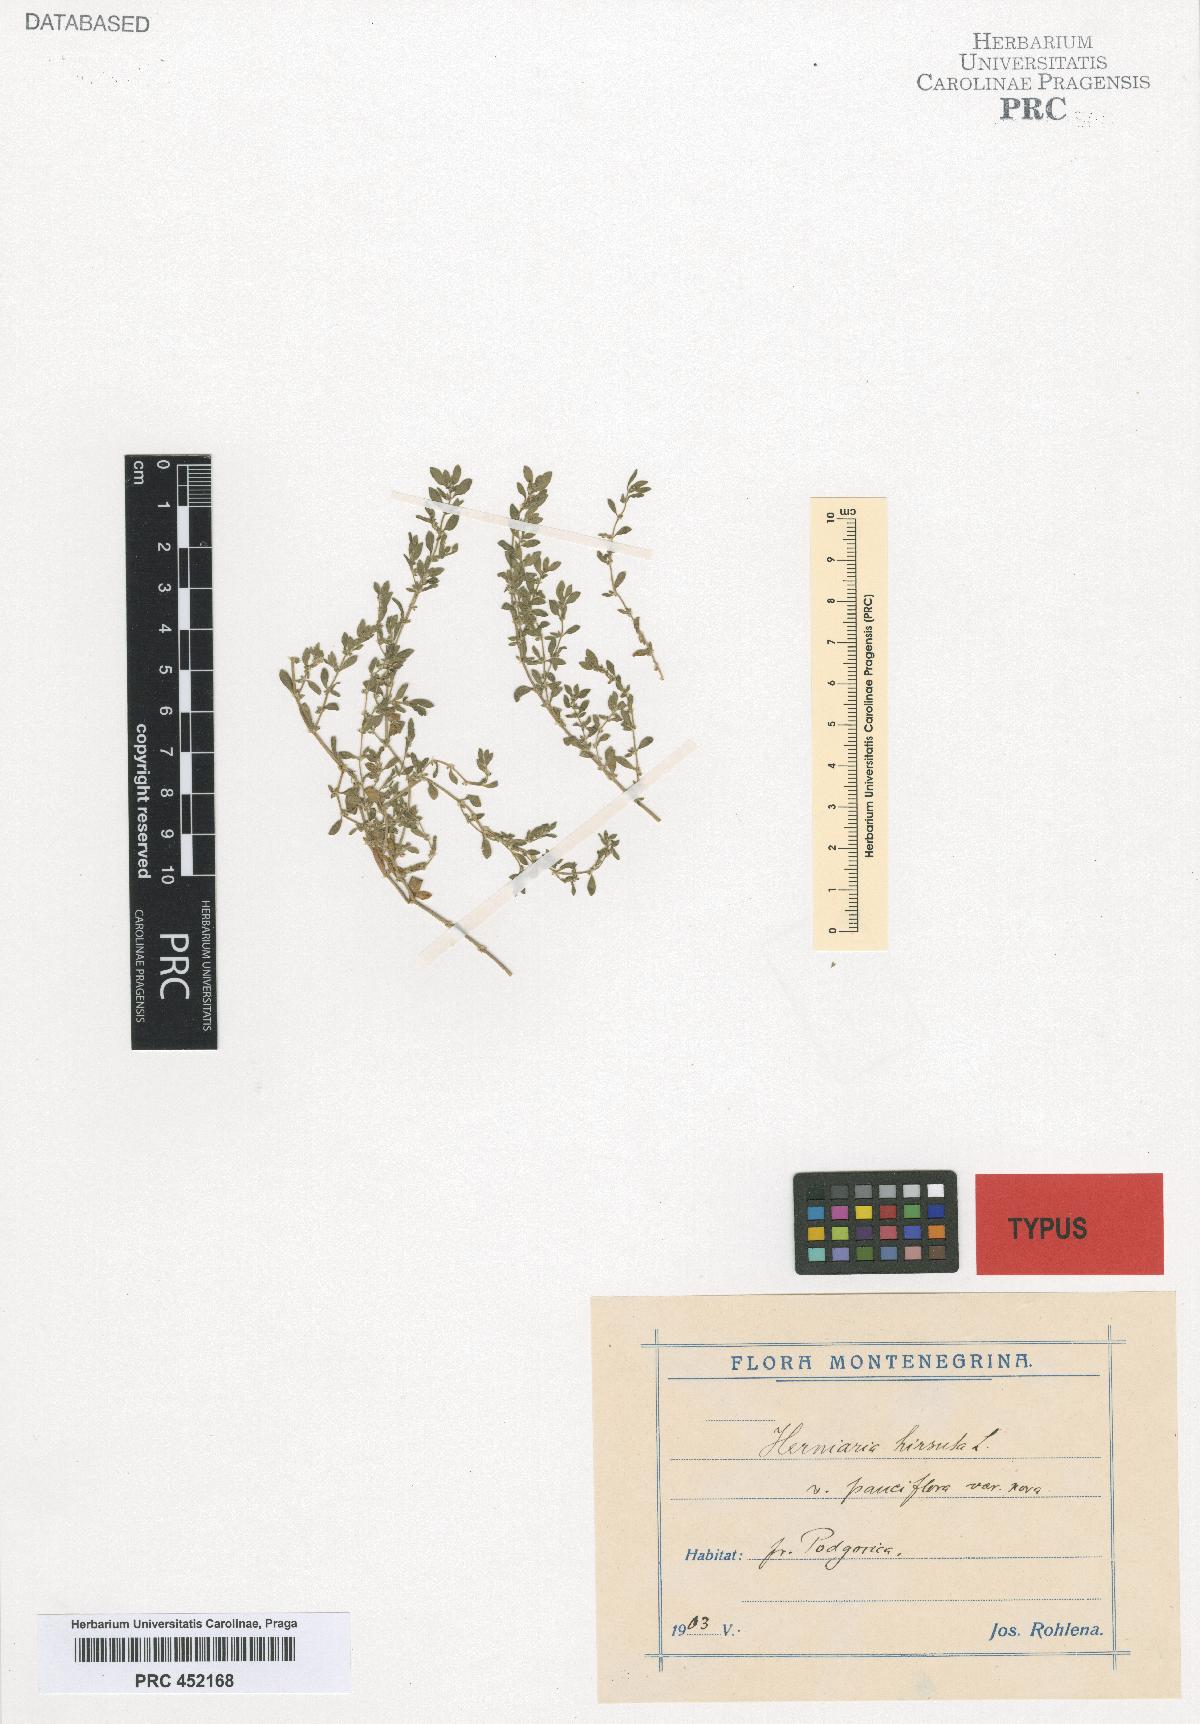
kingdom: Plantae
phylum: Tracheophyta
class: Magnoliopsida
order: Caryophyllales
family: Caryophyllaceae
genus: Herniaria
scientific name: Herniaria hirsuta
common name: Hairy rupturewort
